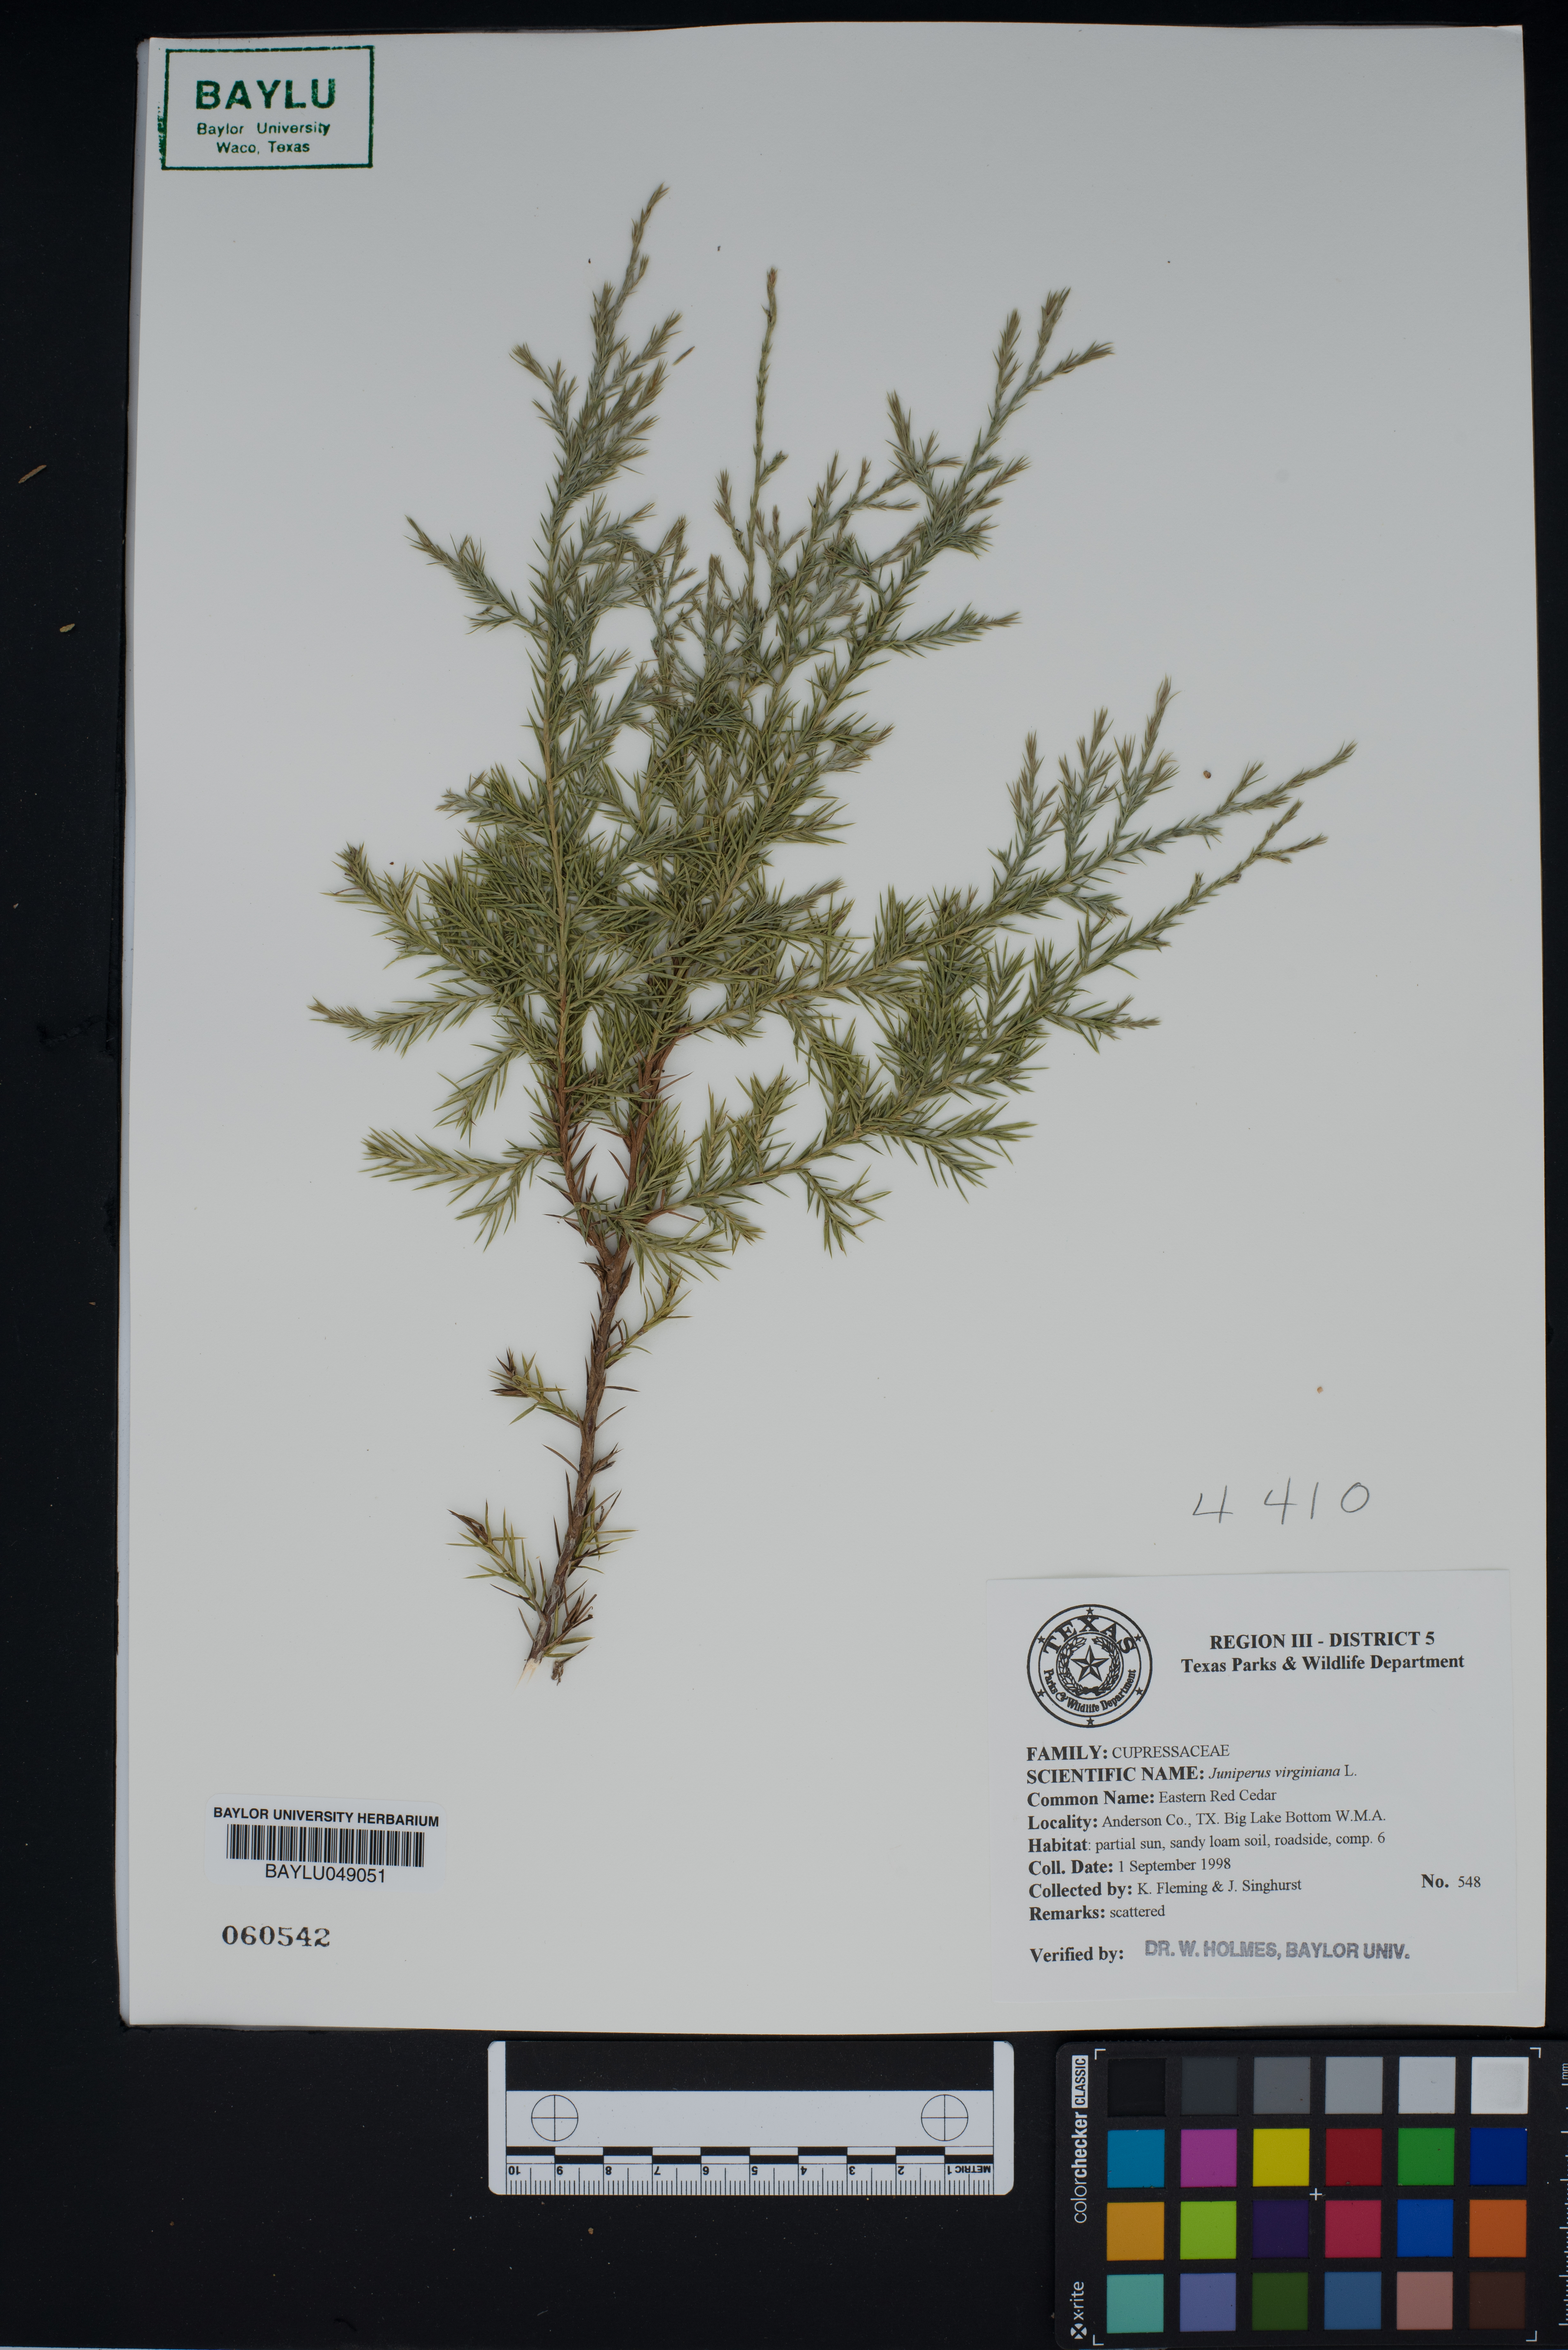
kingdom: Plantae
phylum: Tracheophyta
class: Pinopsida
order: Pinales
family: Cupressaceae
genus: Juniperus
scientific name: Juniperus virginiana
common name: Red juniper
